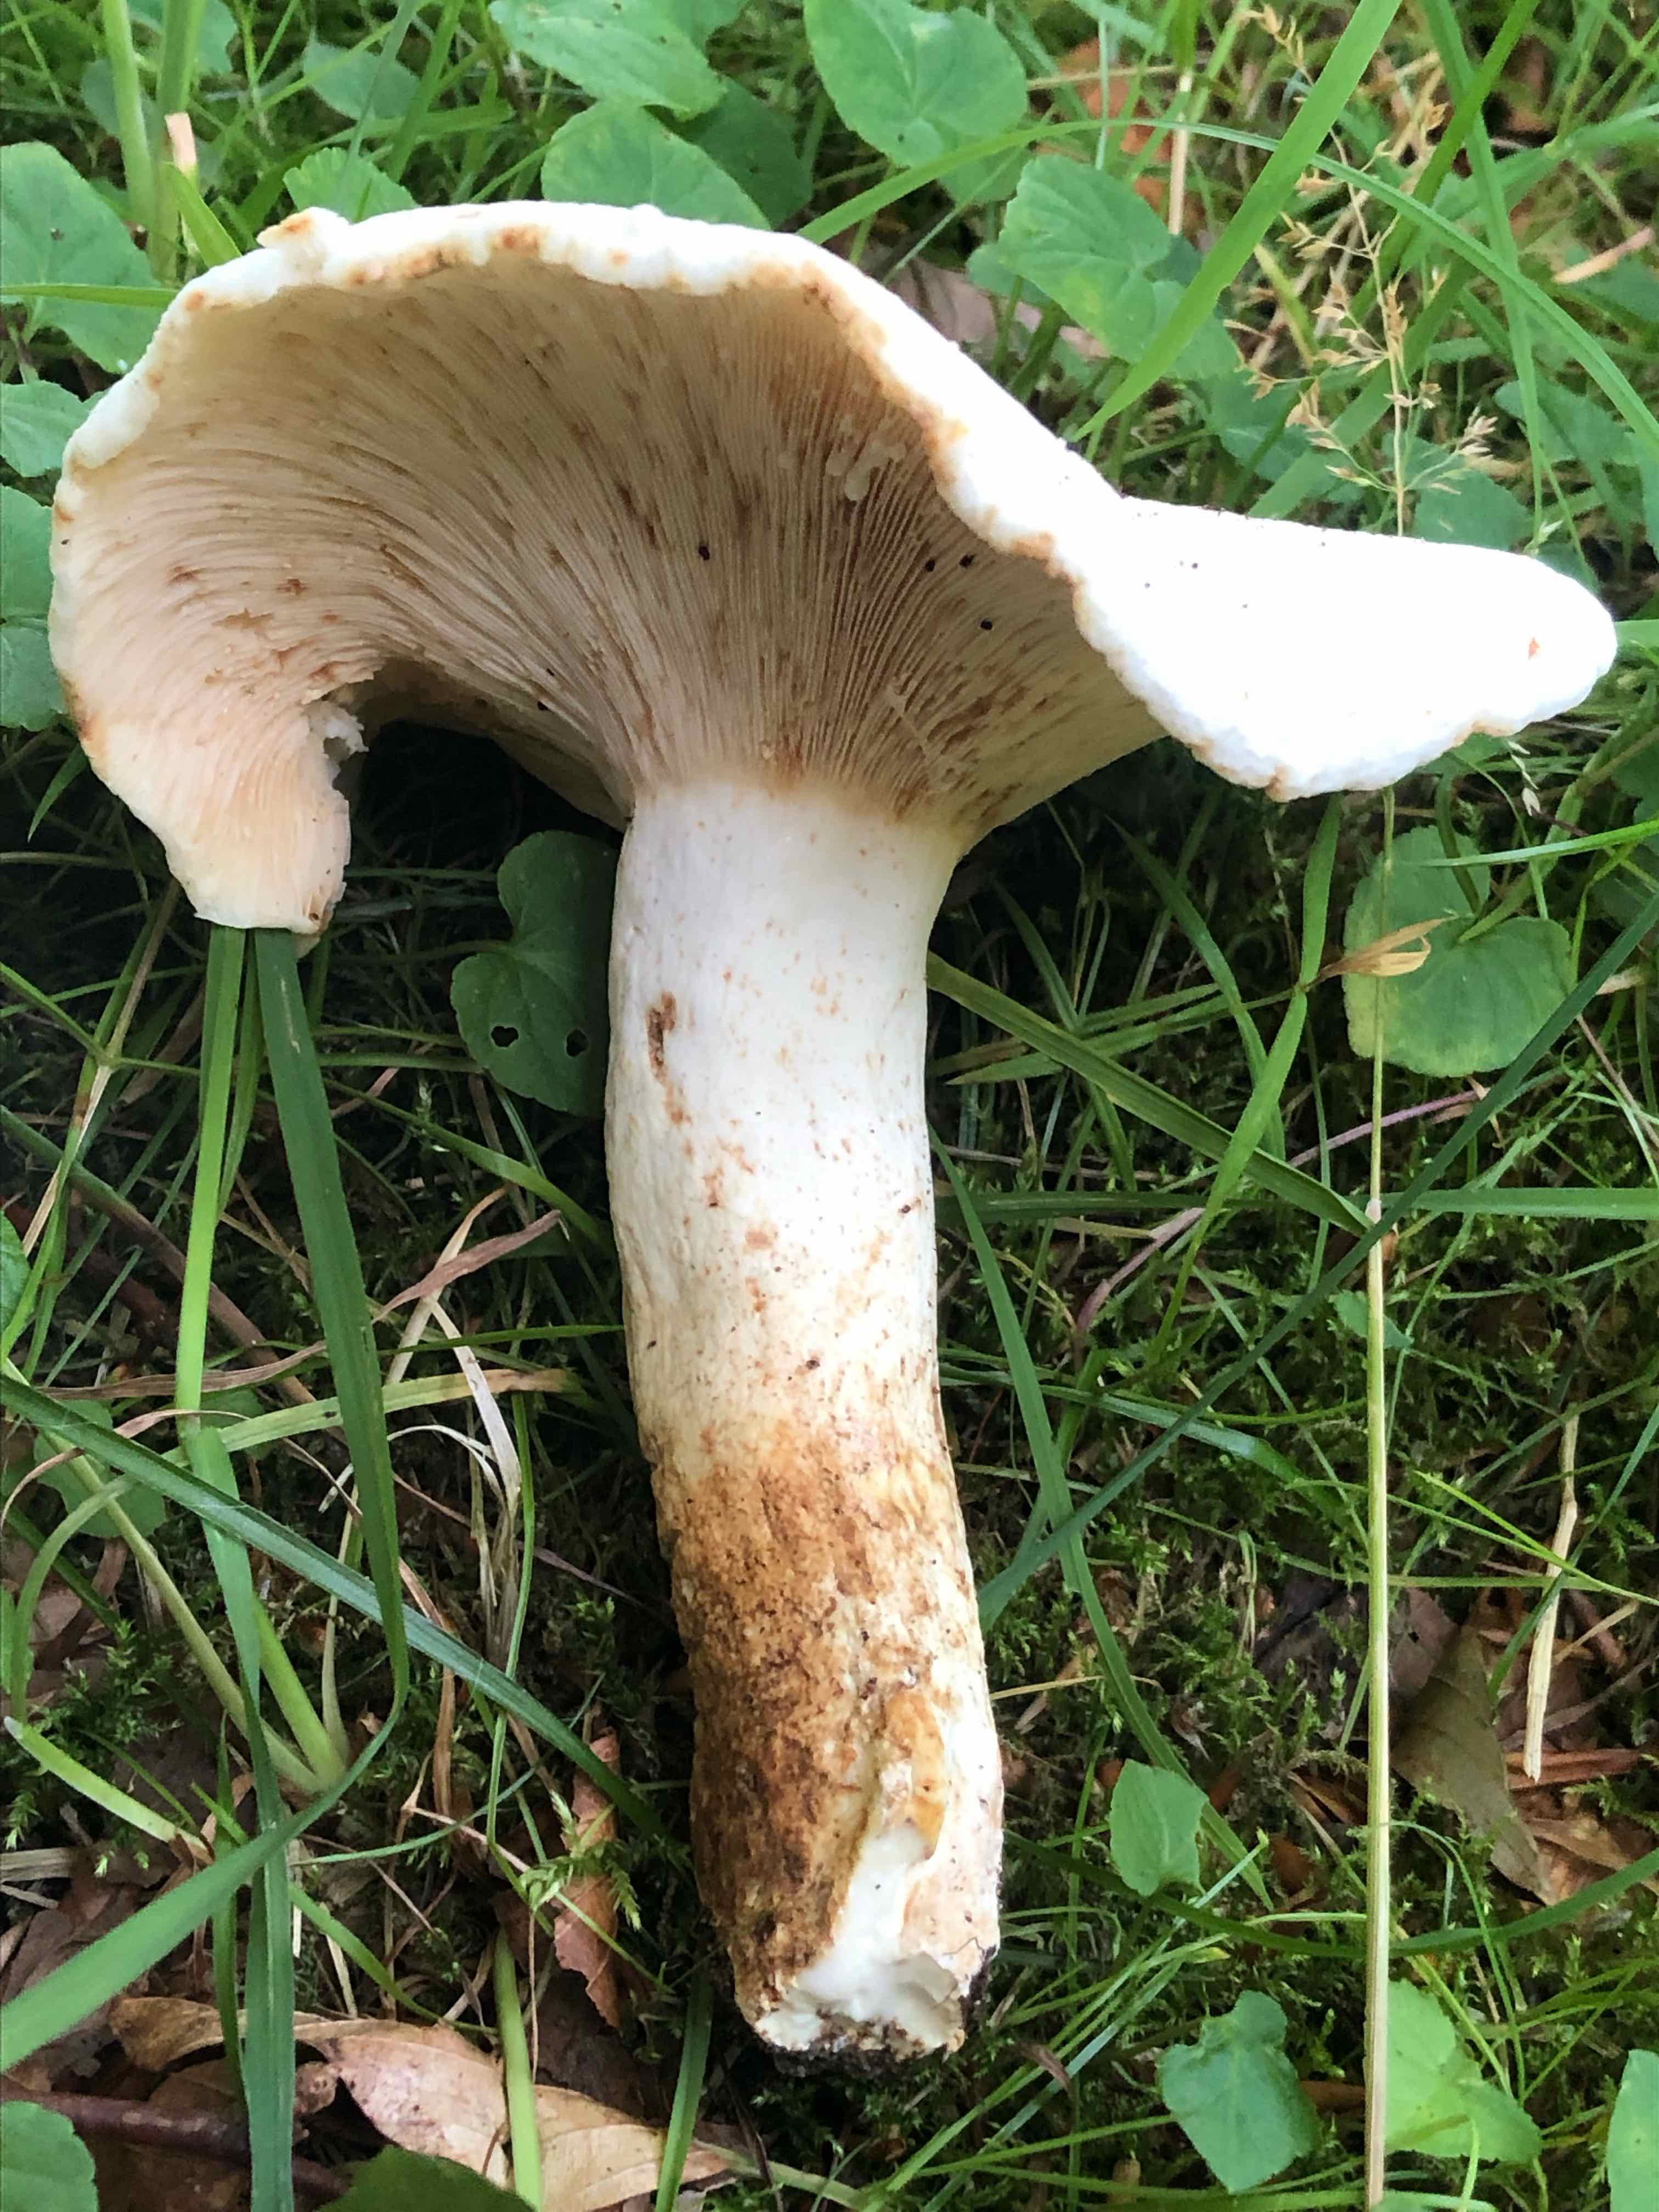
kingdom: Fungi
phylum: Basidiomycota
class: Agaricomycetes
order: Russulales
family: Russulaceae
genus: Lactifluus
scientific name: Lactifluus piperatus
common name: peber-mælkehat
